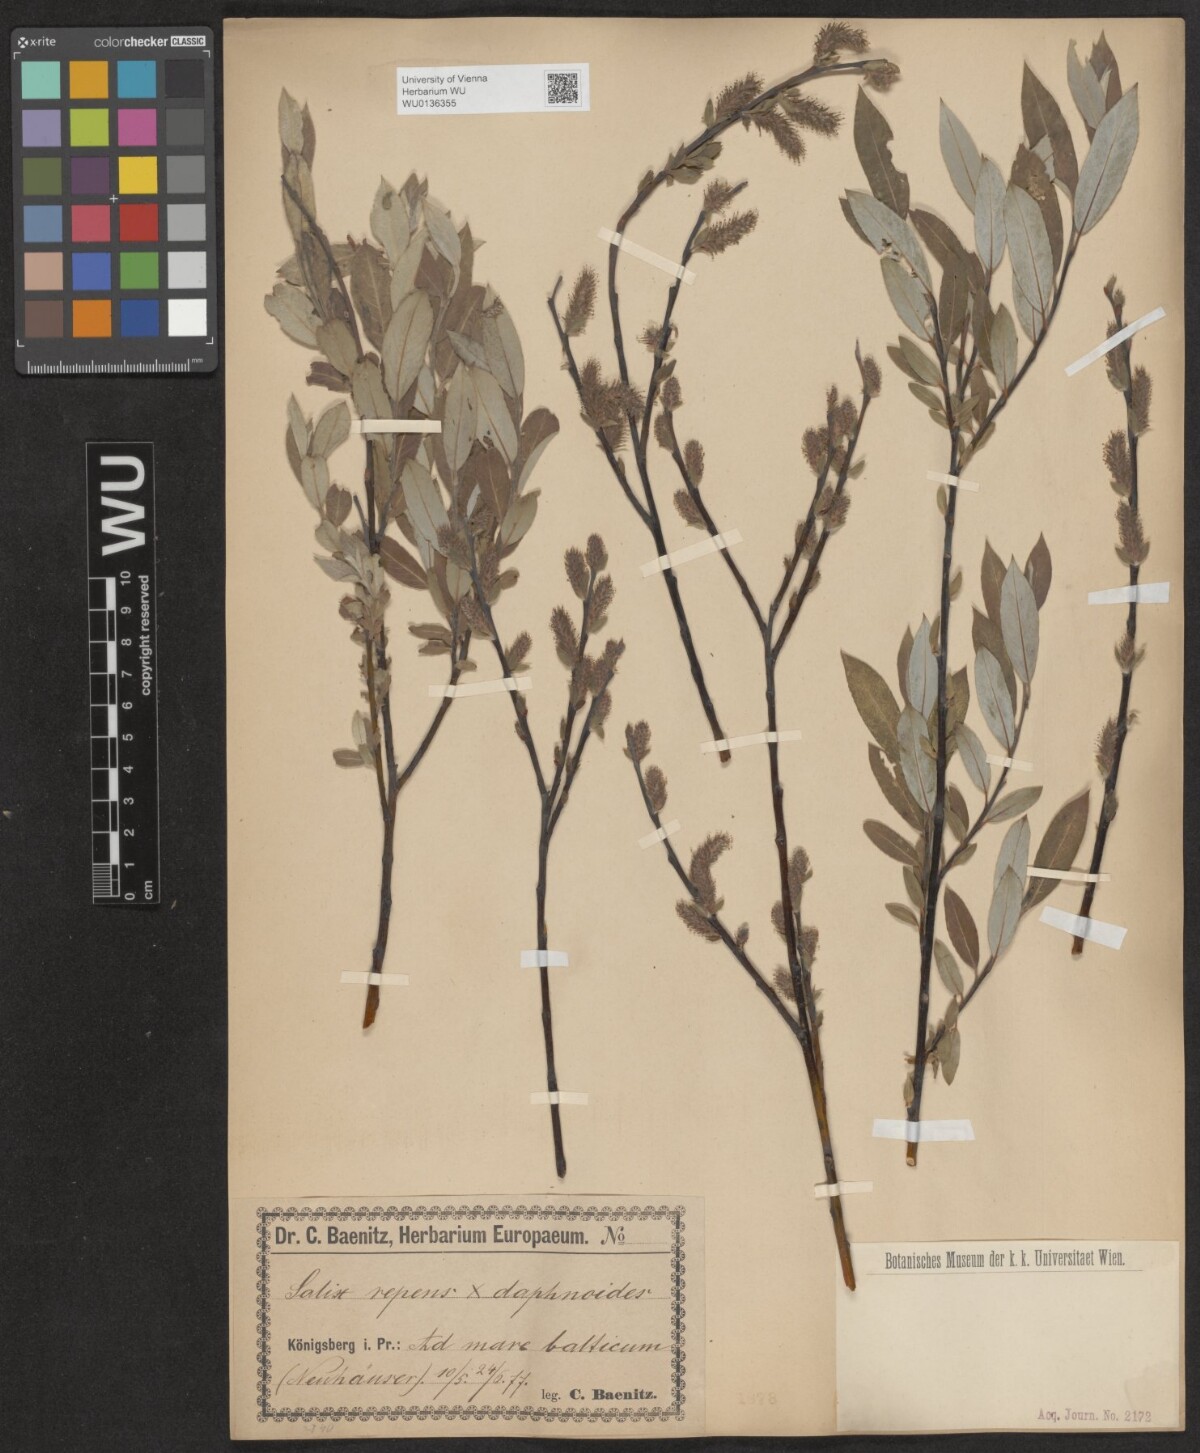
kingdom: Plantae
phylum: Tracheophyta
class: Magnoliopsida
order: Malpighiales
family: Salicaceae
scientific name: Salicaceae
